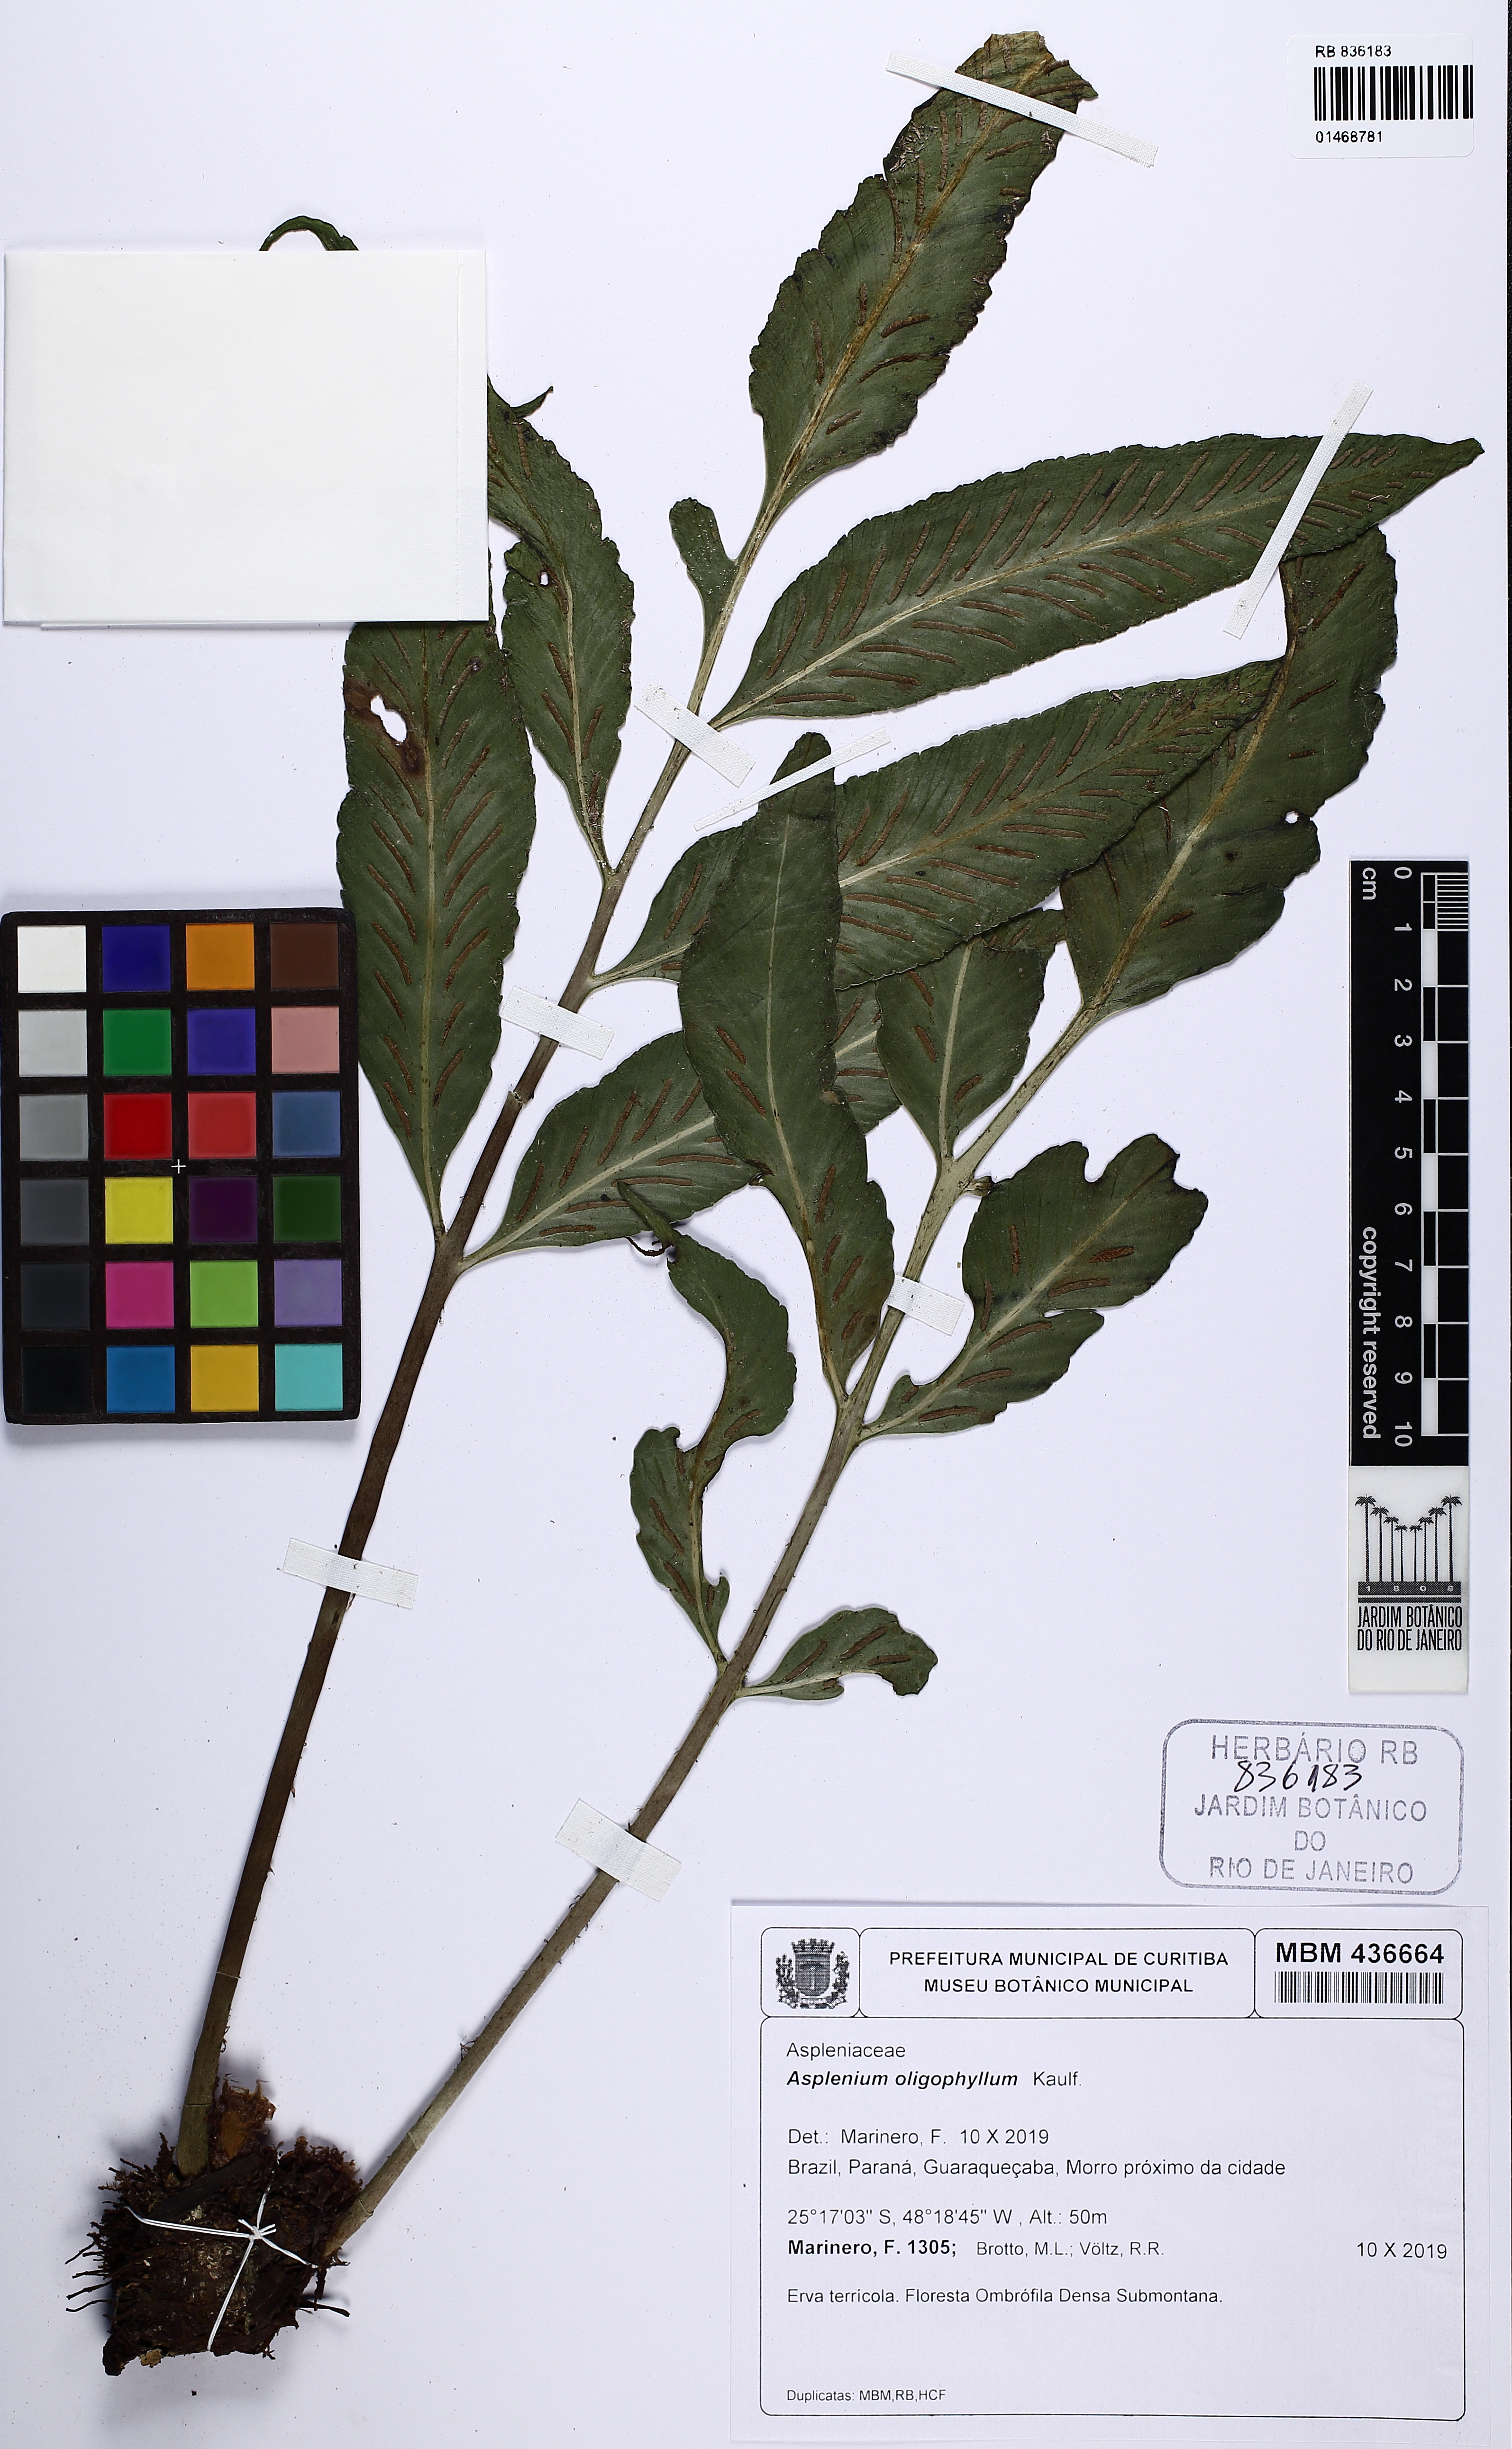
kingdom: Plantae
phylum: Tracheophyta
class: Polypodiopsida
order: Polypodiales
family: Aspleniaceae
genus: Asplenium
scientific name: Asplenium oligophyllum
